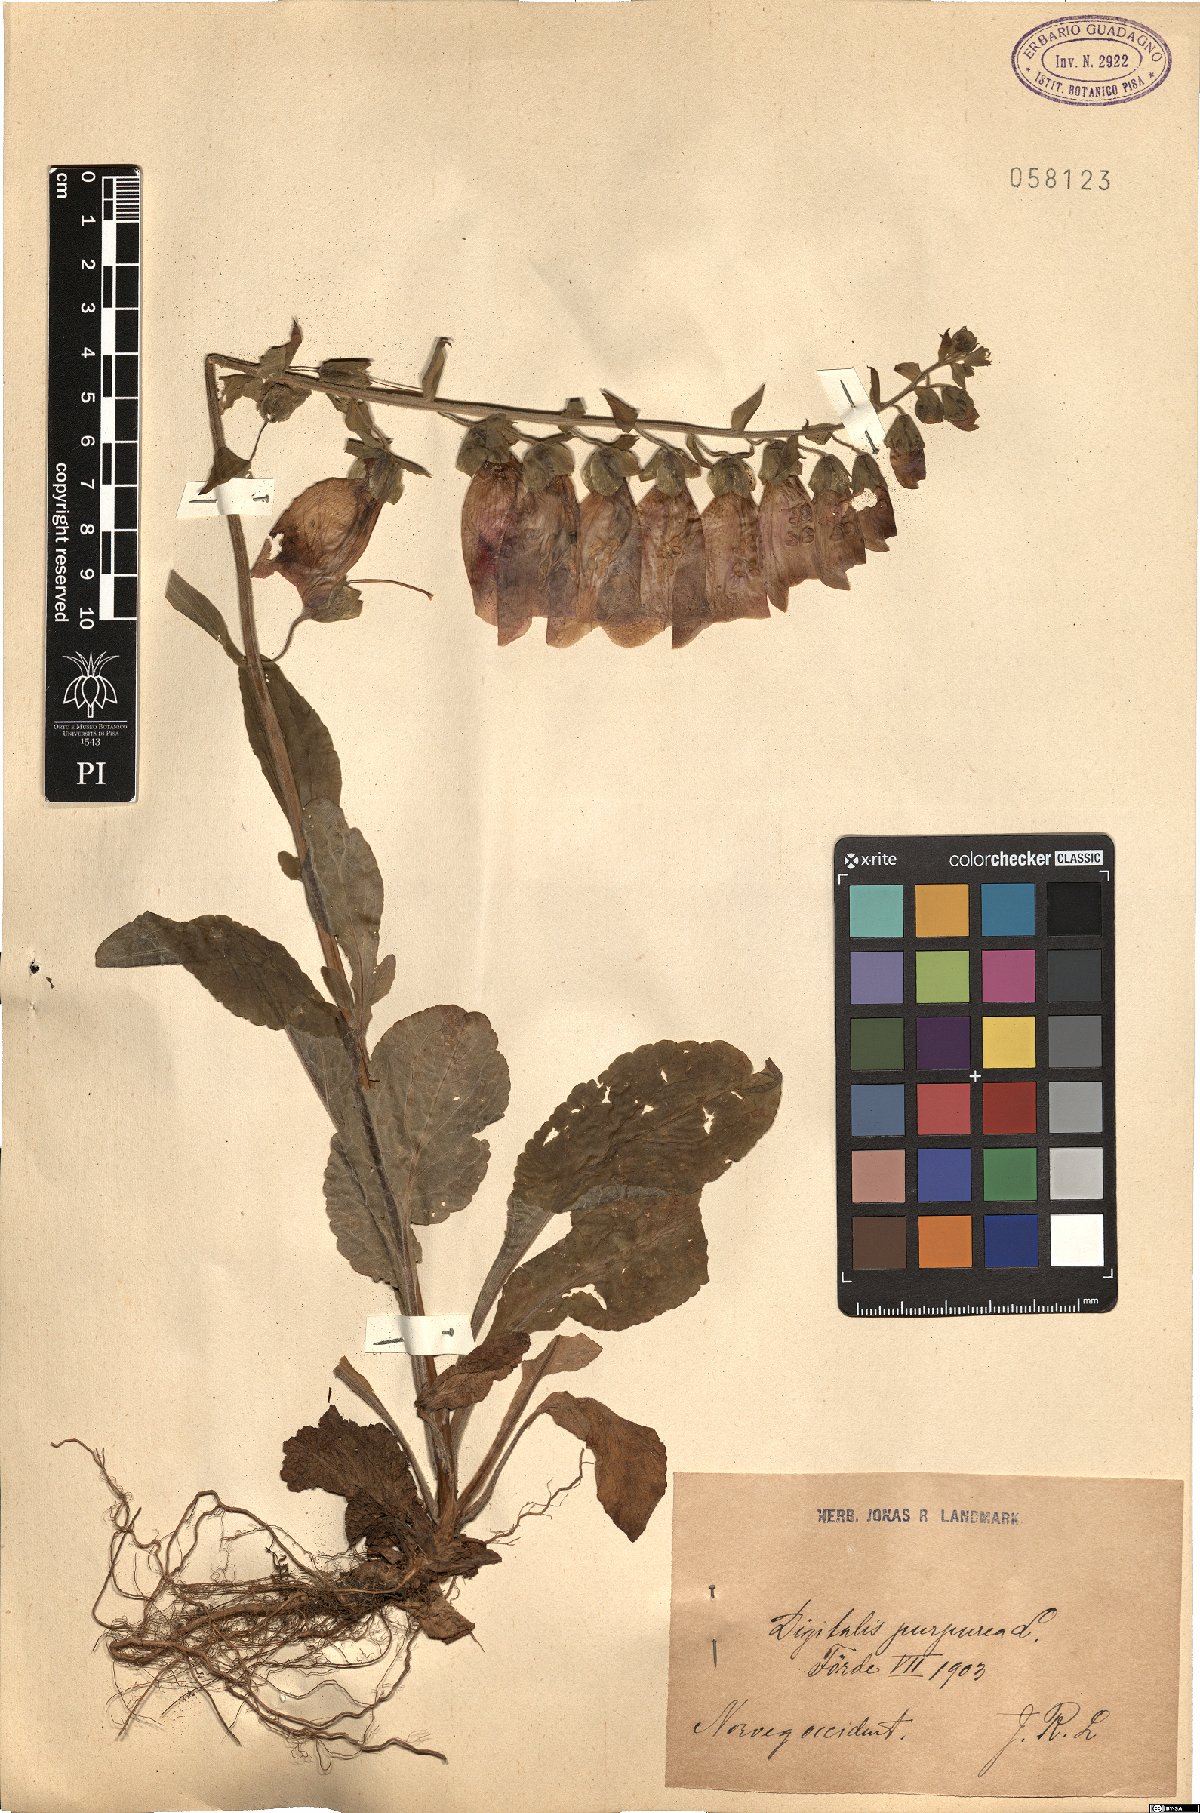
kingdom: Plantae
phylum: Tracheophyta
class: Magnoliopsida
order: Lamiales
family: Plantaginaceae
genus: Digitalis
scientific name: Digitalis purpurea
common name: Foxglove
